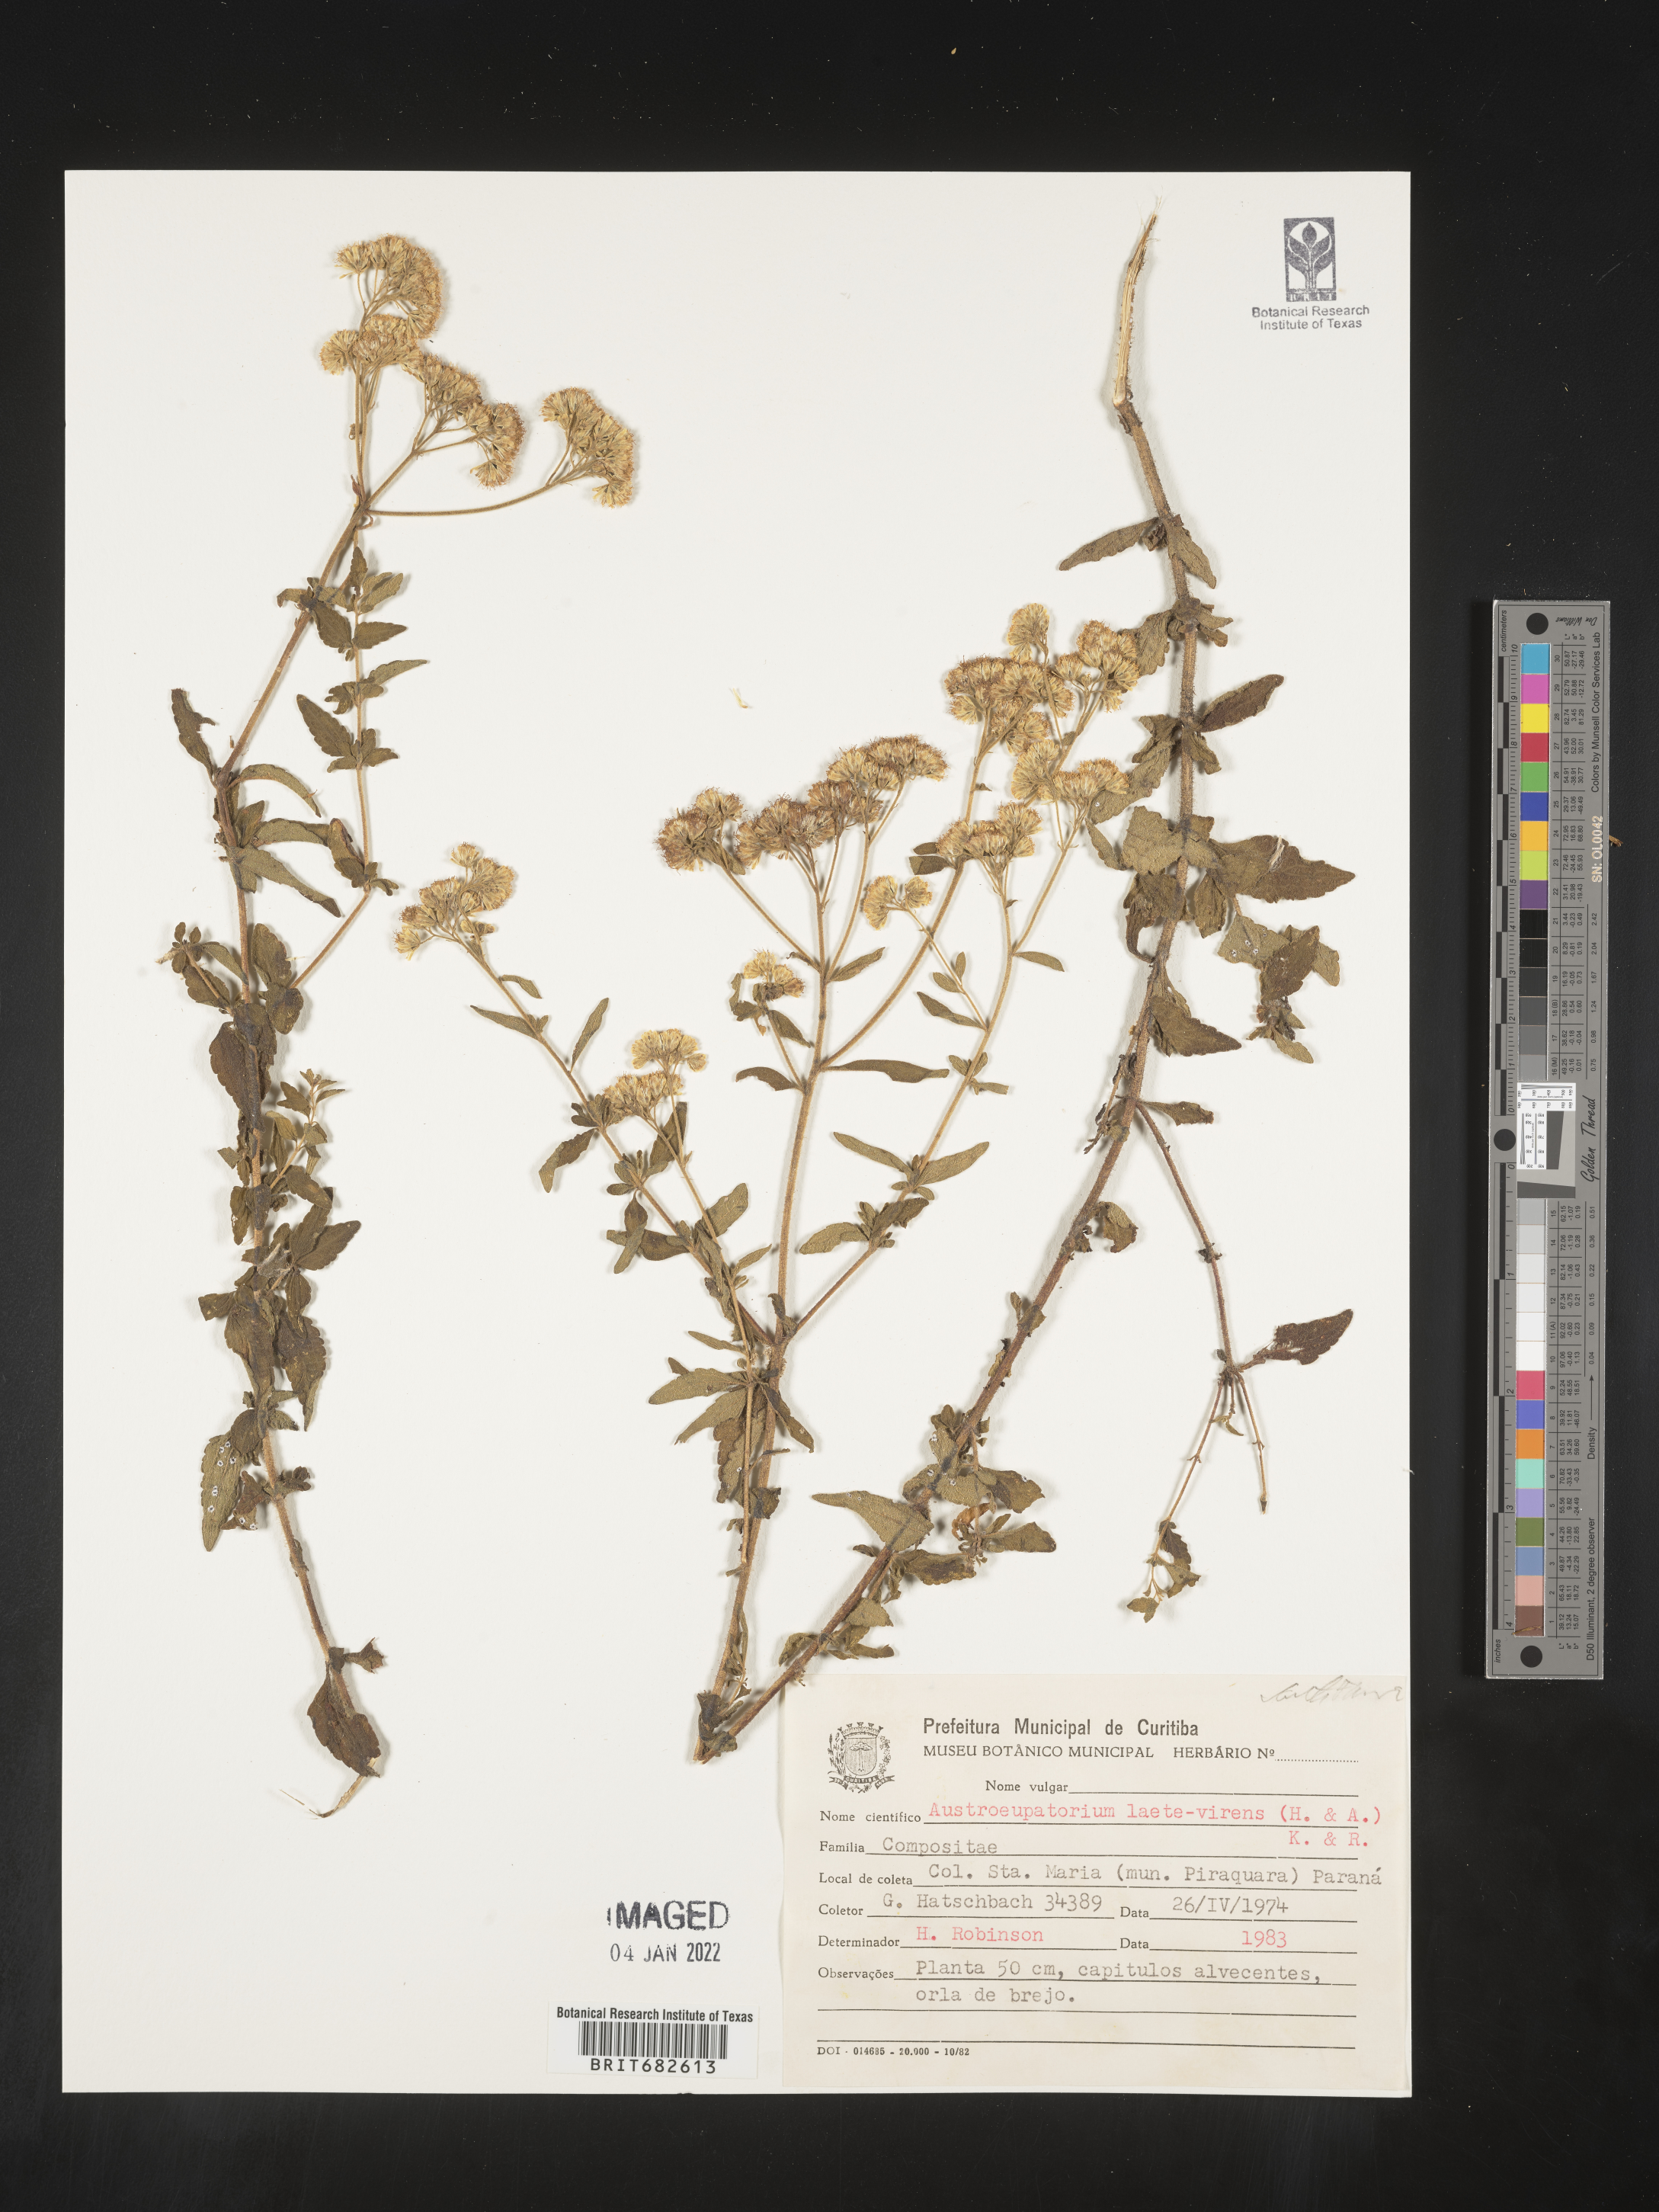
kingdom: Plantae
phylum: Tracheophyta
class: Magnoliopsida
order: Asterales
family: Asteraceae
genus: Austroeupatorium
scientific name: Austroeupatorium
